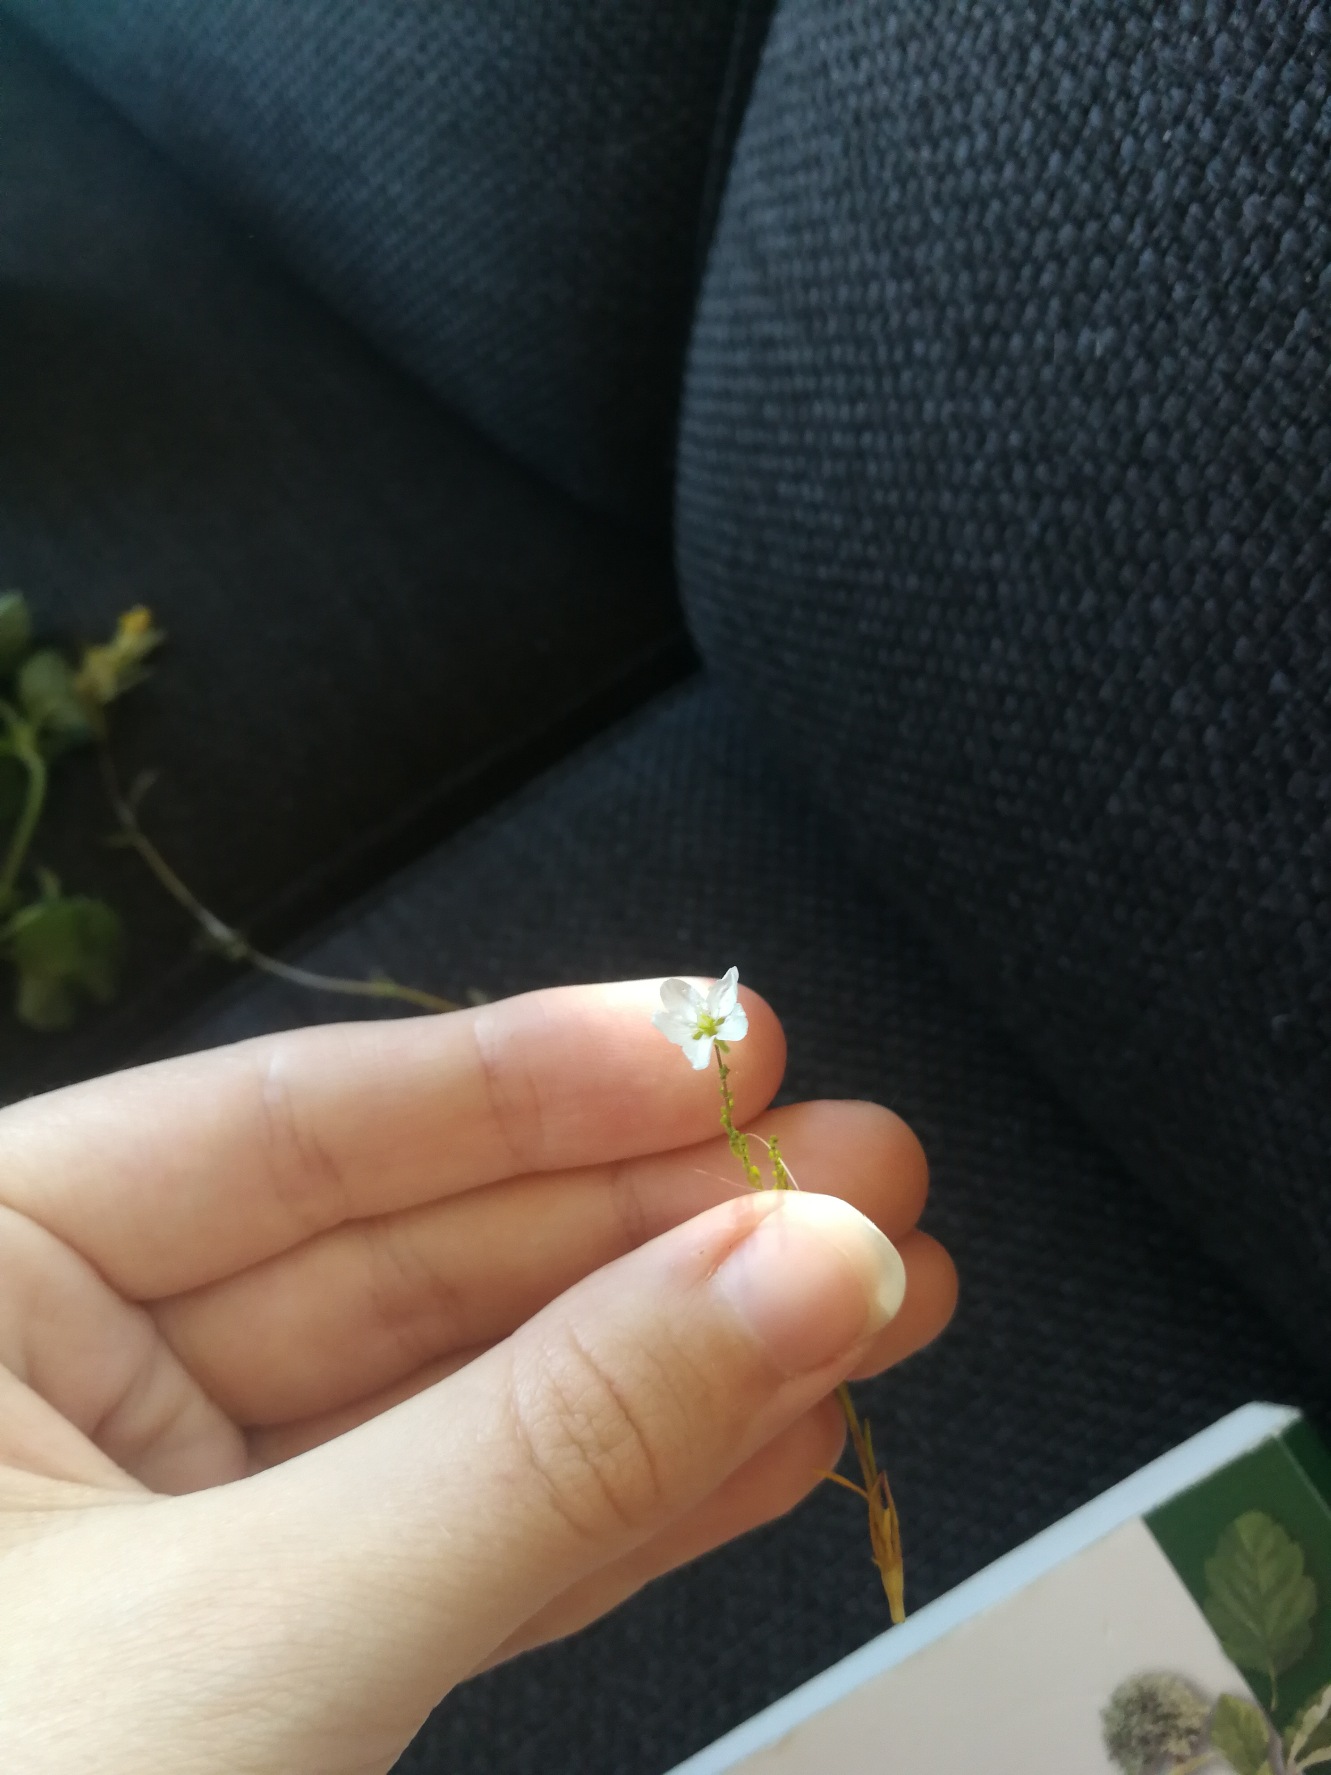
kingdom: Plantae
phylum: Tracheophyta
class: Magnoliopsida
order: Caryophyllales
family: Caryophyllaceae
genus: Sagina
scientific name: Sagina nodosa
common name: Knude-firling
